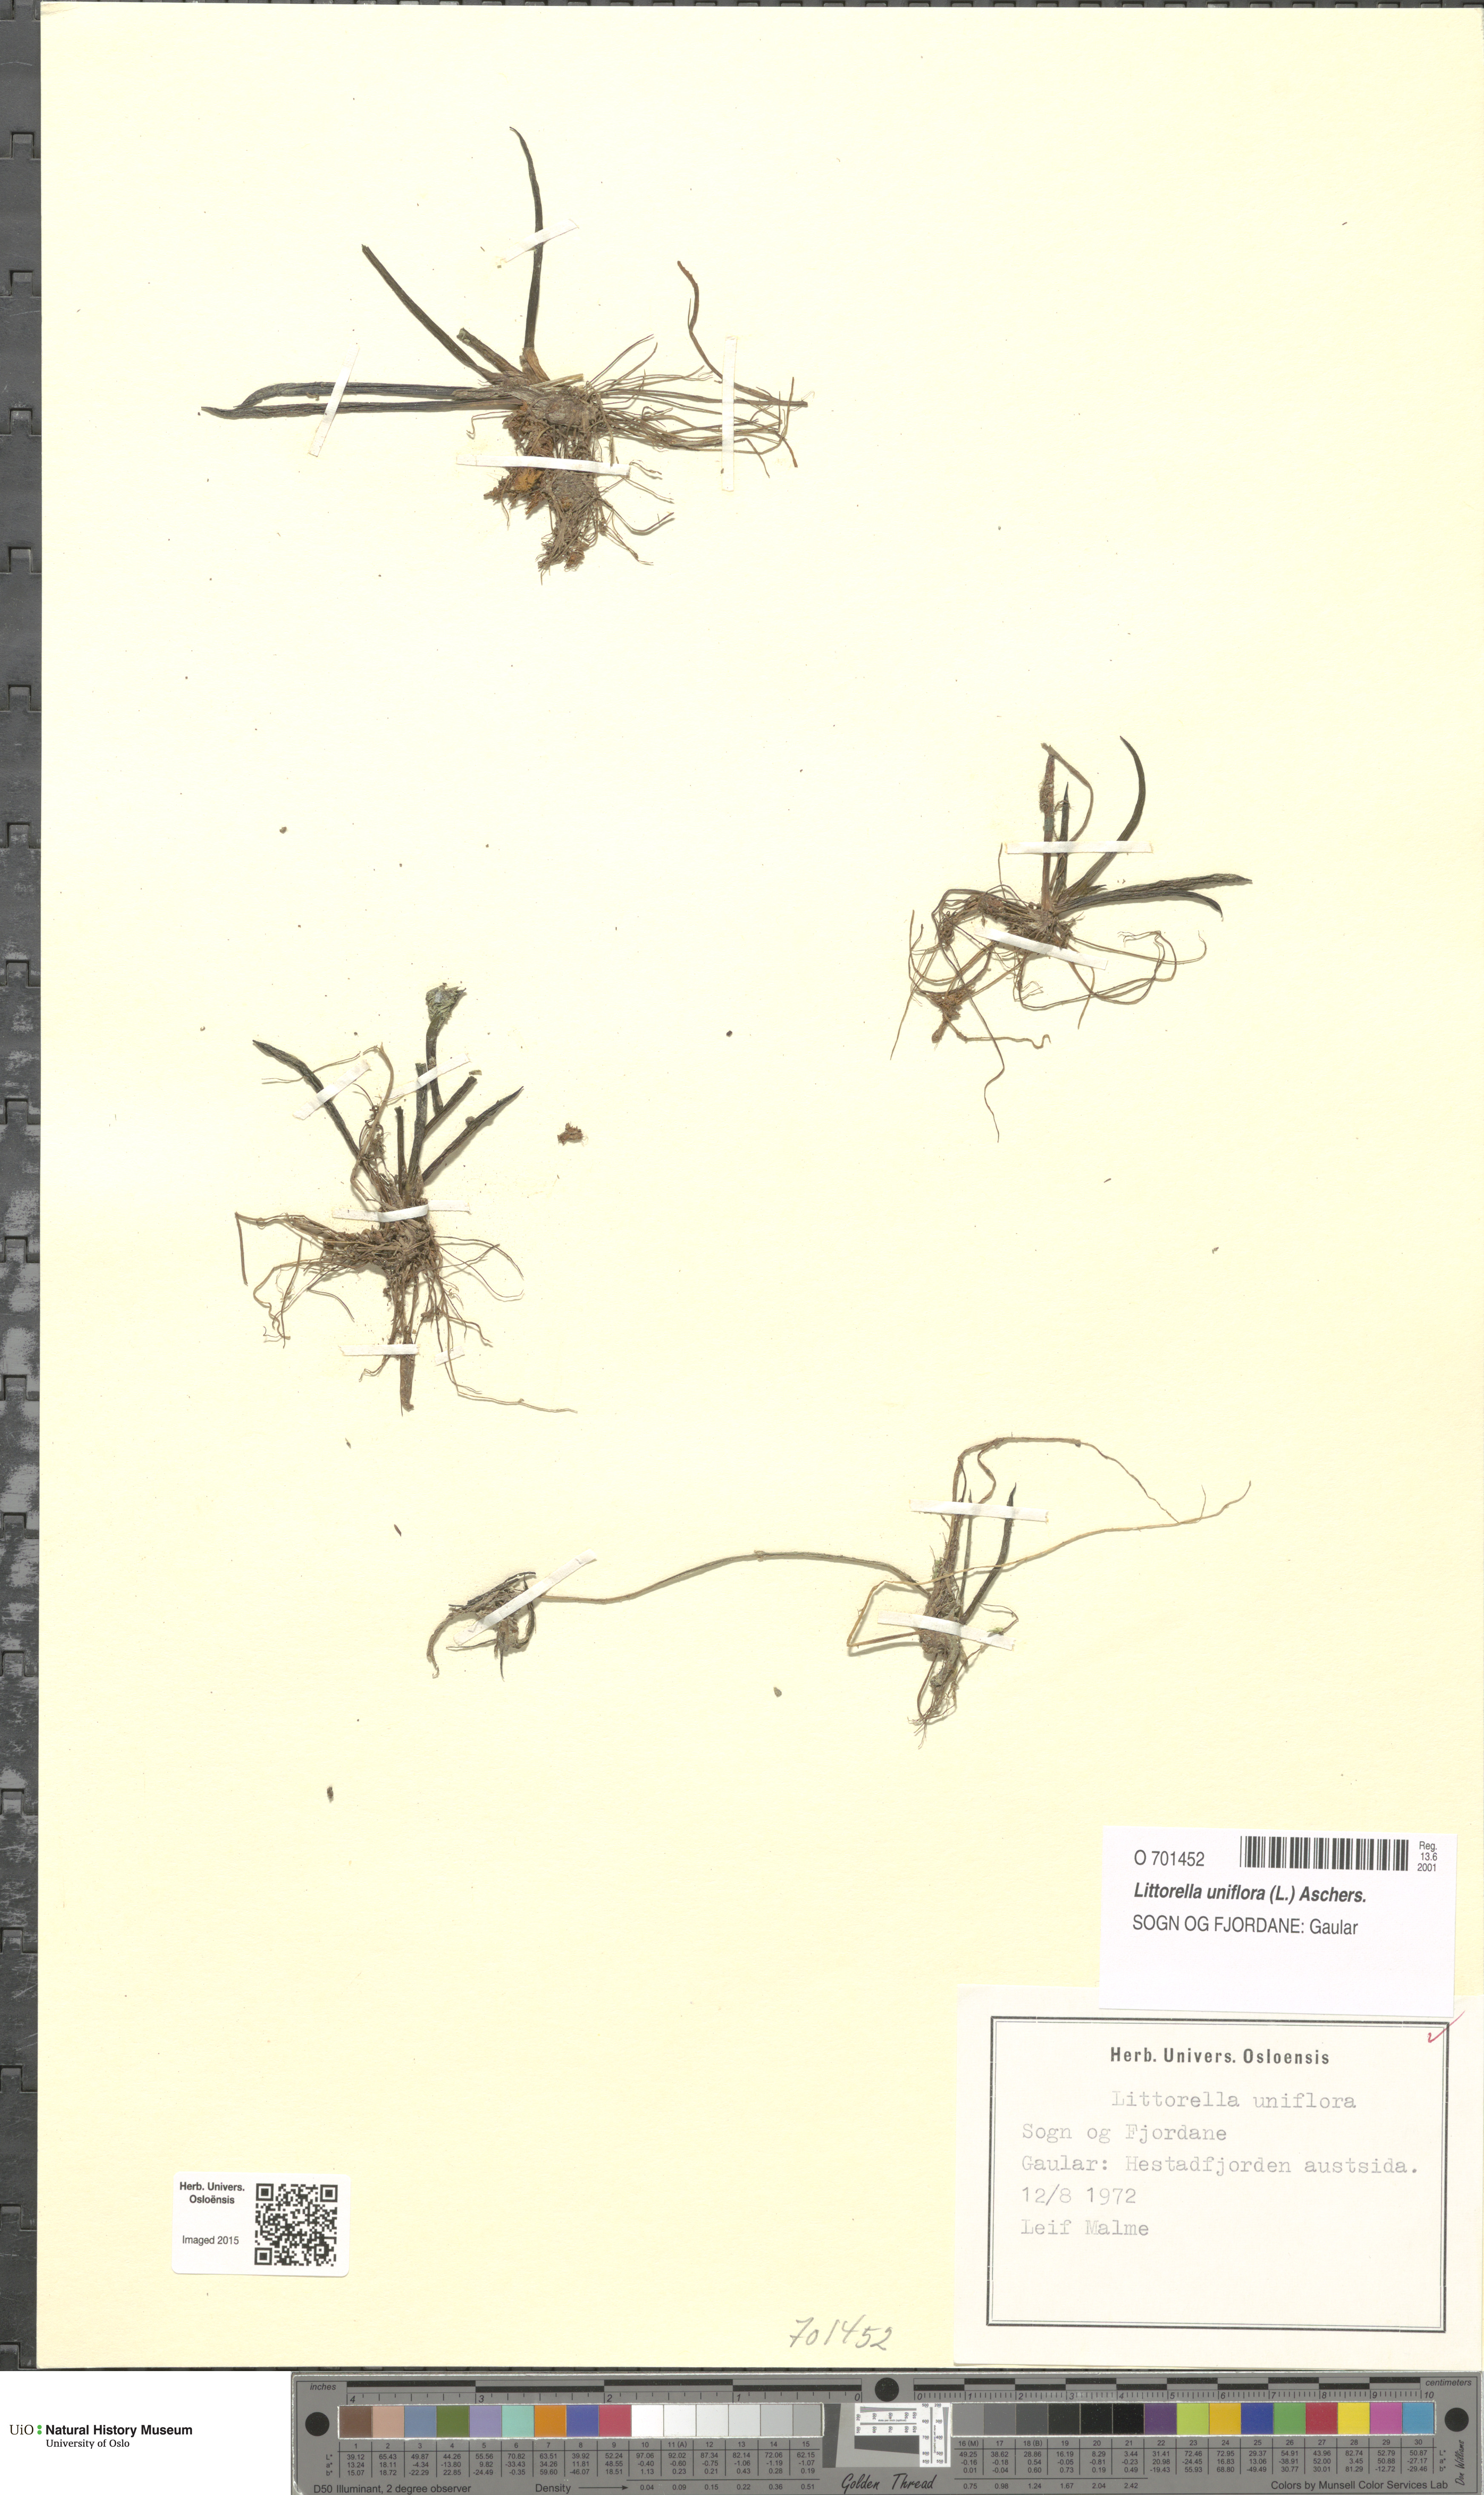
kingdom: Plantae
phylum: Tracheophyta
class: Magnoliopsida
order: Lamiales
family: Plantaginaceae
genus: Littorella
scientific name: Littorella uniflora
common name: Shoreweed
